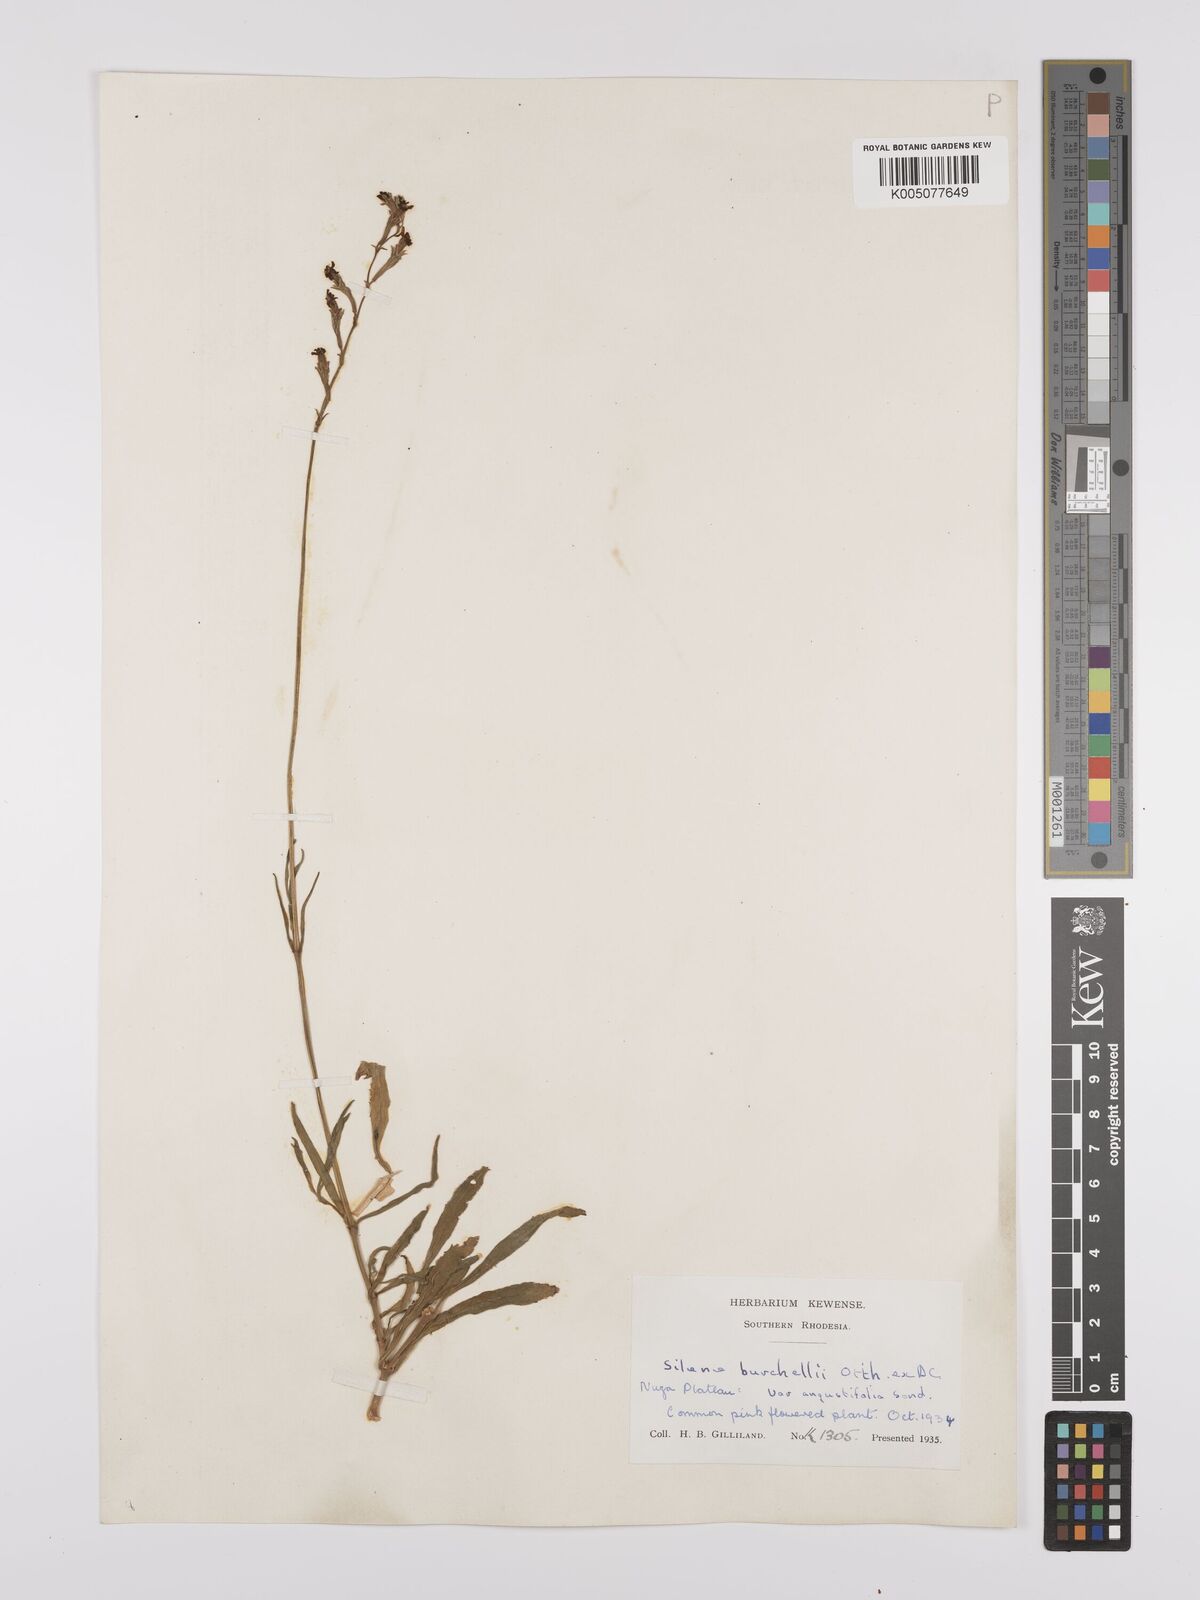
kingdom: Plantae
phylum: Tracheophyta
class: Magnoliopsida
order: Caryophyllales
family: Caryophyllaceae
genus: Silene
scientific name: Silene burchellii
